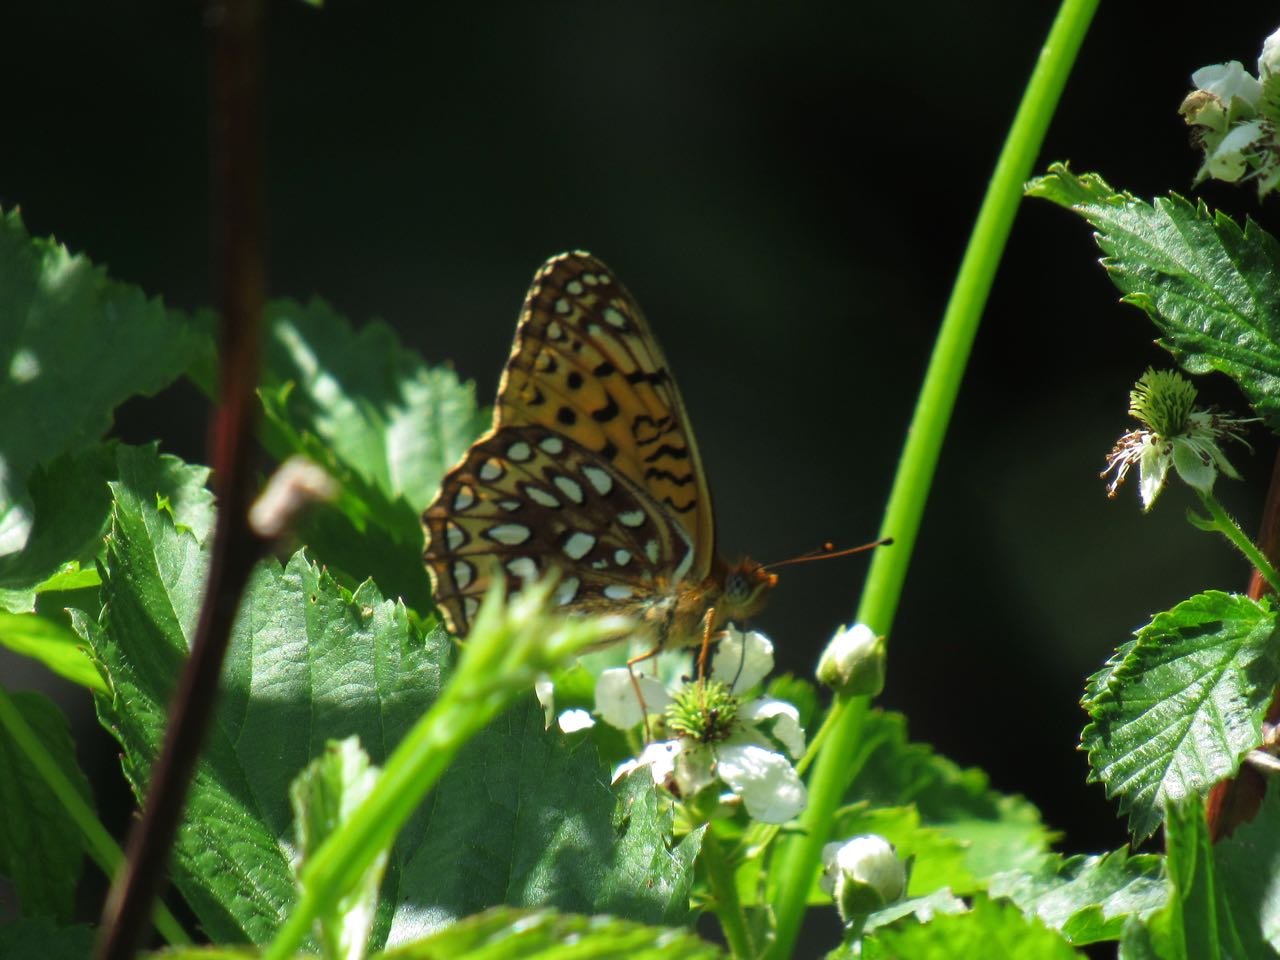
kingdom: Animalia
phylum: Arthropoda
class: Insecta
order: Lepidoptera
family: Nymphalidae
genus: Speyeria
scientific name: Speyeria atlantis
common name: Atlantis Fritillary
